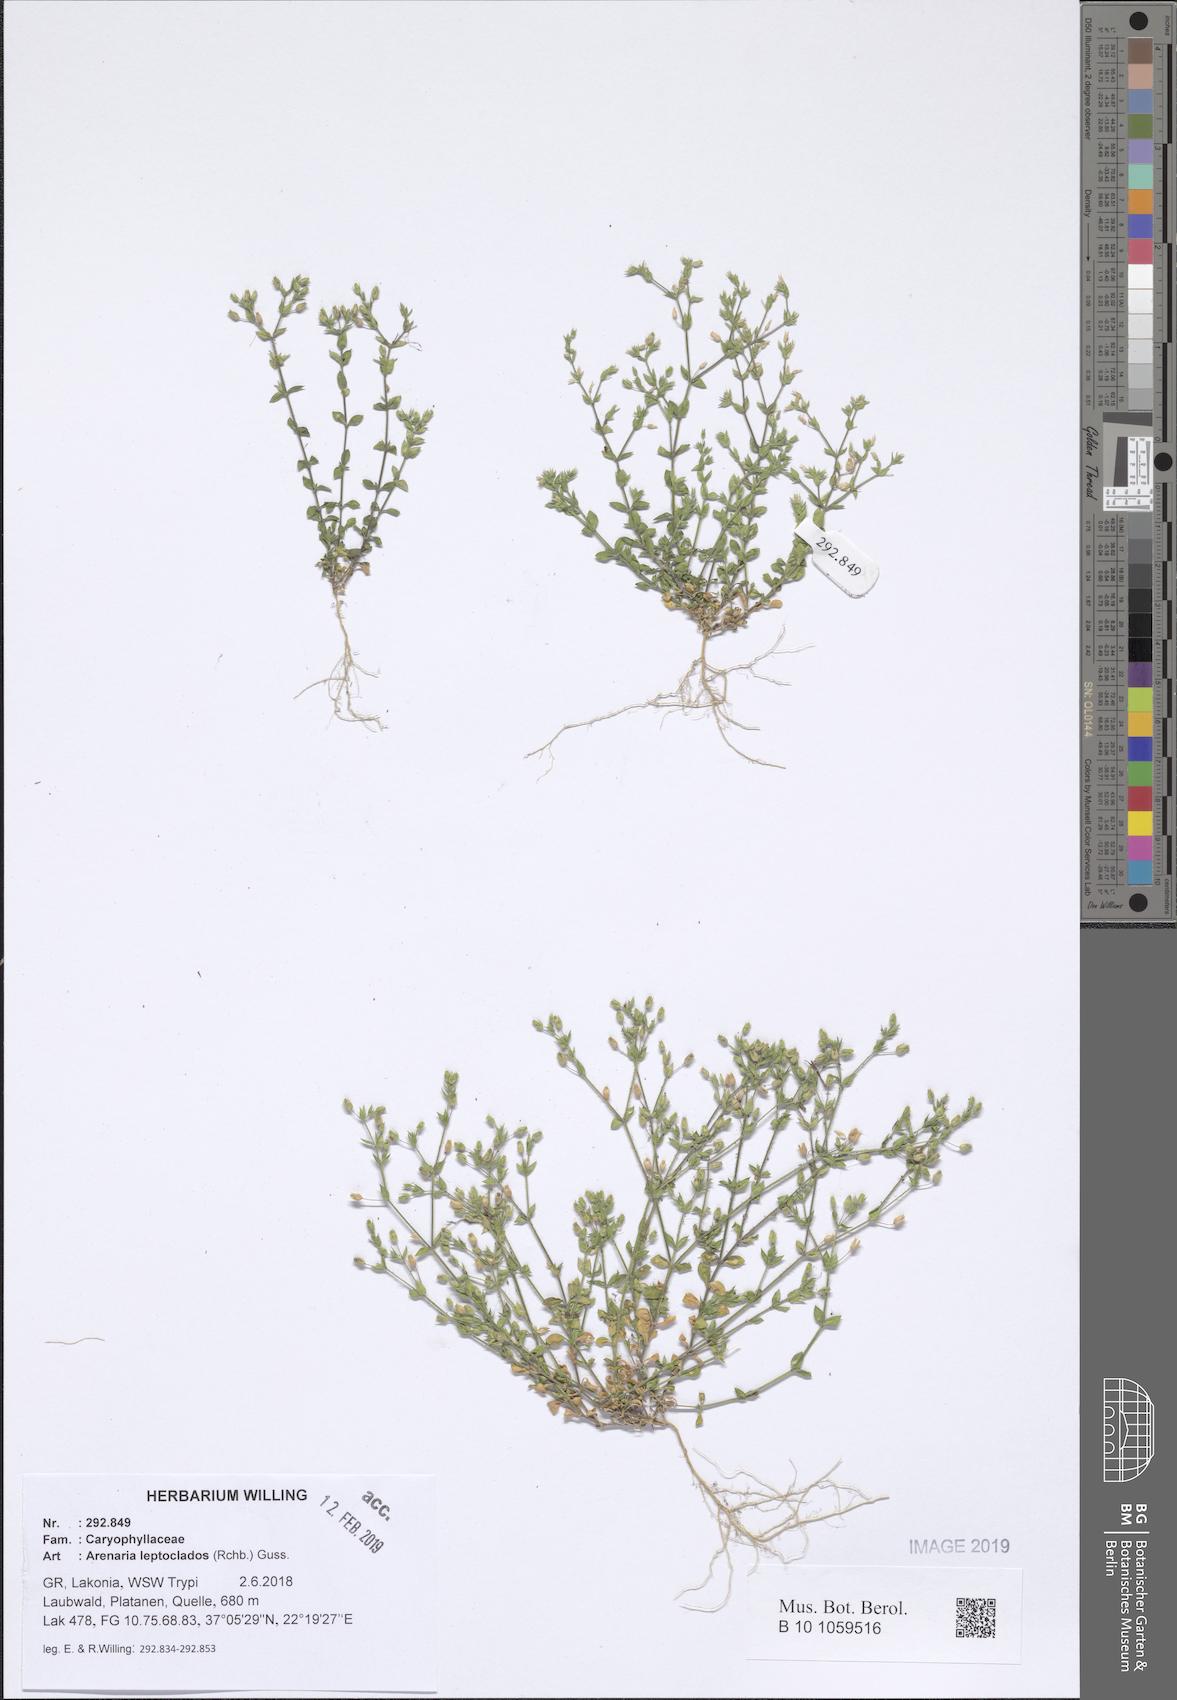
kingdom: Plantae
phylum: Tracheophyta
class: Magnoliopsida
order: Caryophyllales
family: Caryophyllaceae
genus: Arenaria
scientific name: Arenaria leptoclados
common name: Thyme-leaved sandwort
